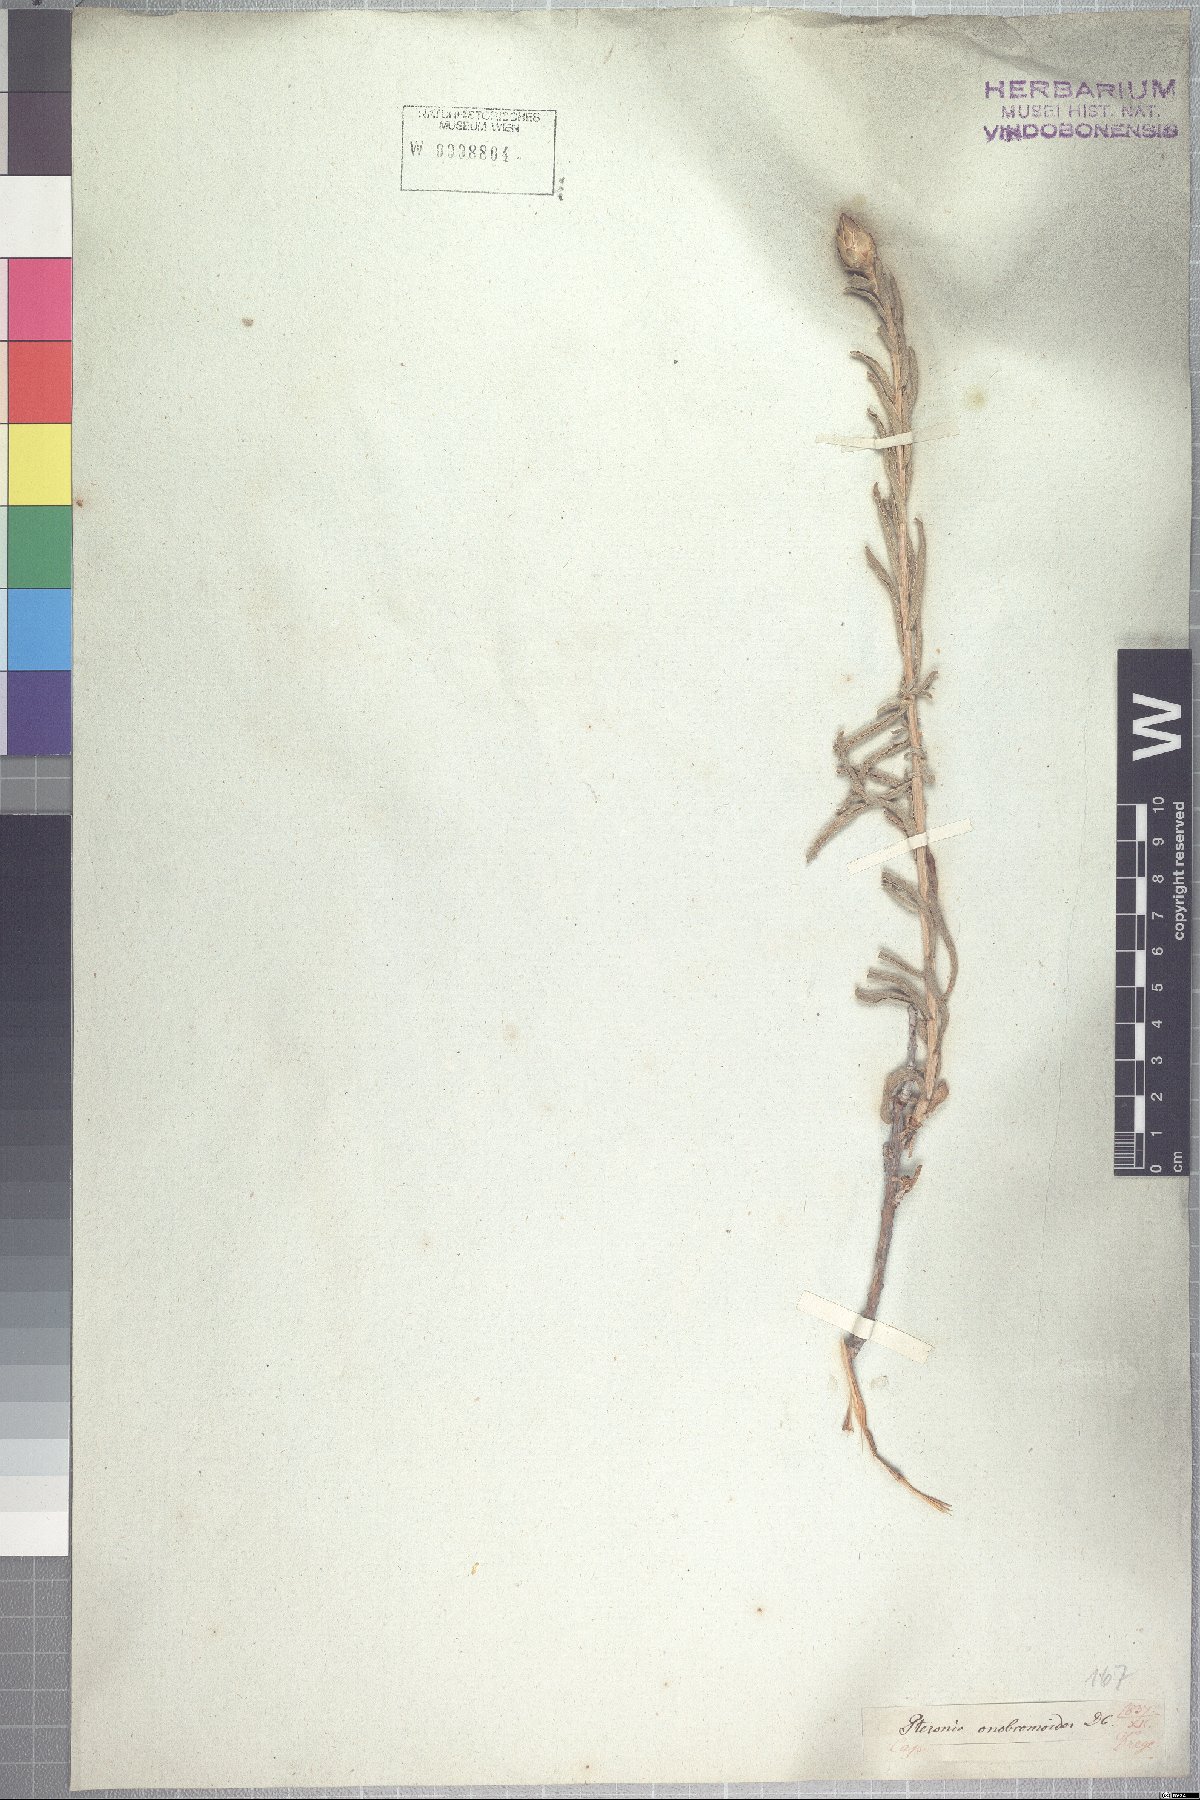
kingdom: Plantae
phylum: Tracheophyta
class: Magnoliopsida
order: Asterales
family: Asteraceae
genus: Pteronia
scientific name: Pteronia onobromoides
